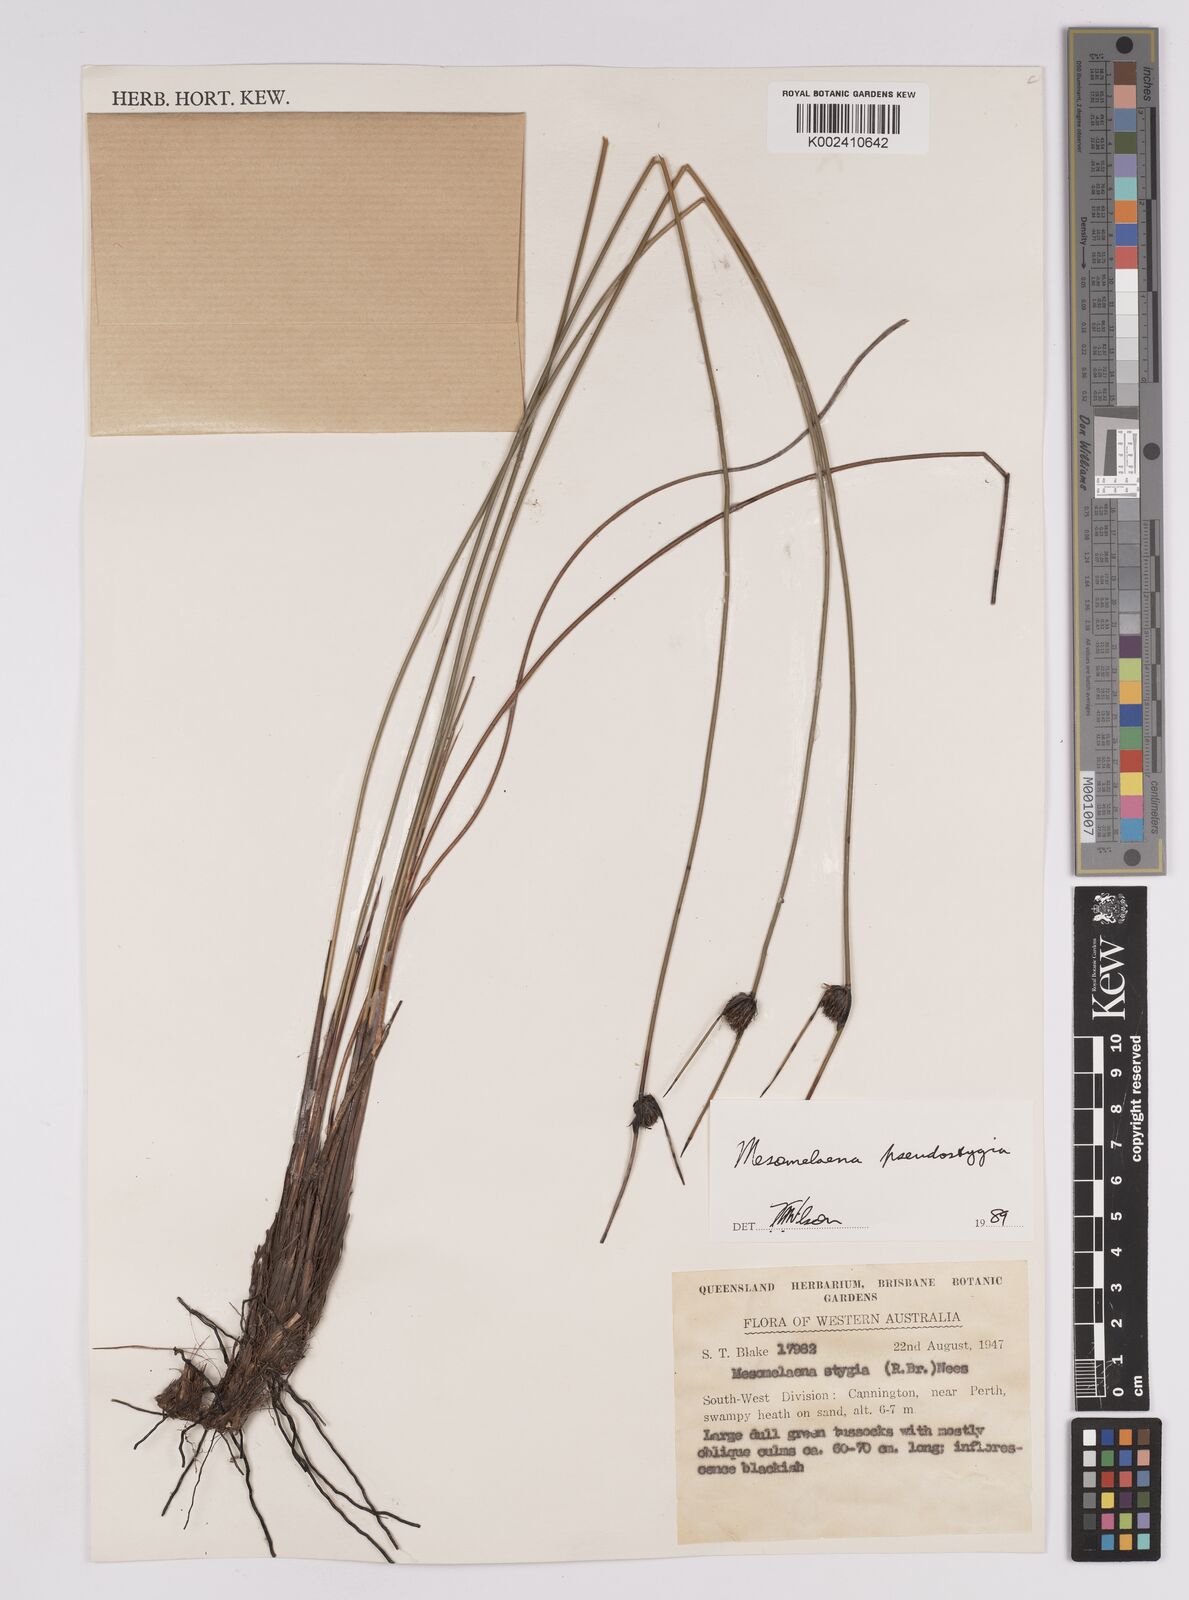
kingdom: Plantae
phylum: Tracheophyta
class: Liliopsida
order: Poales
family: Cyperaceae
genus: Mesomelaena
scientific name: Mesomelaena pseudostygia
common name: Semaphore sedge
